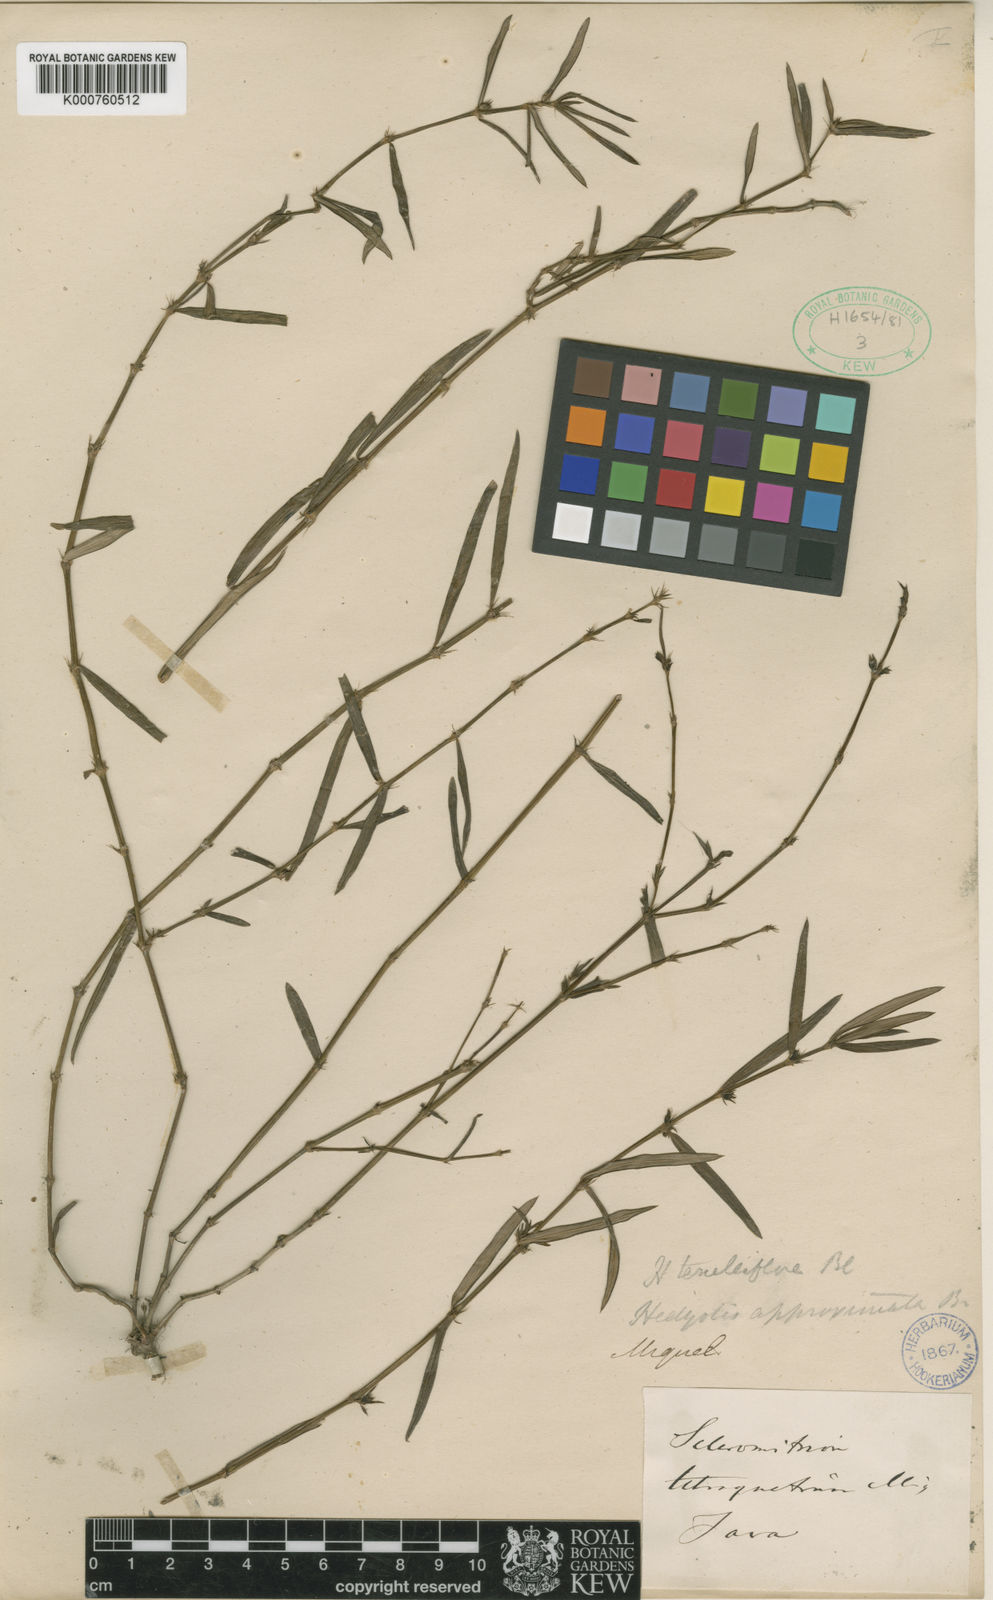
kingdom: Plantae
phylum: Tracheophyta
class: Magnoliopsida
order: Gentianales
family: Rubiaceae
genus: Scleromitrion
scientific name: Scleromitrion tenelliflorum
